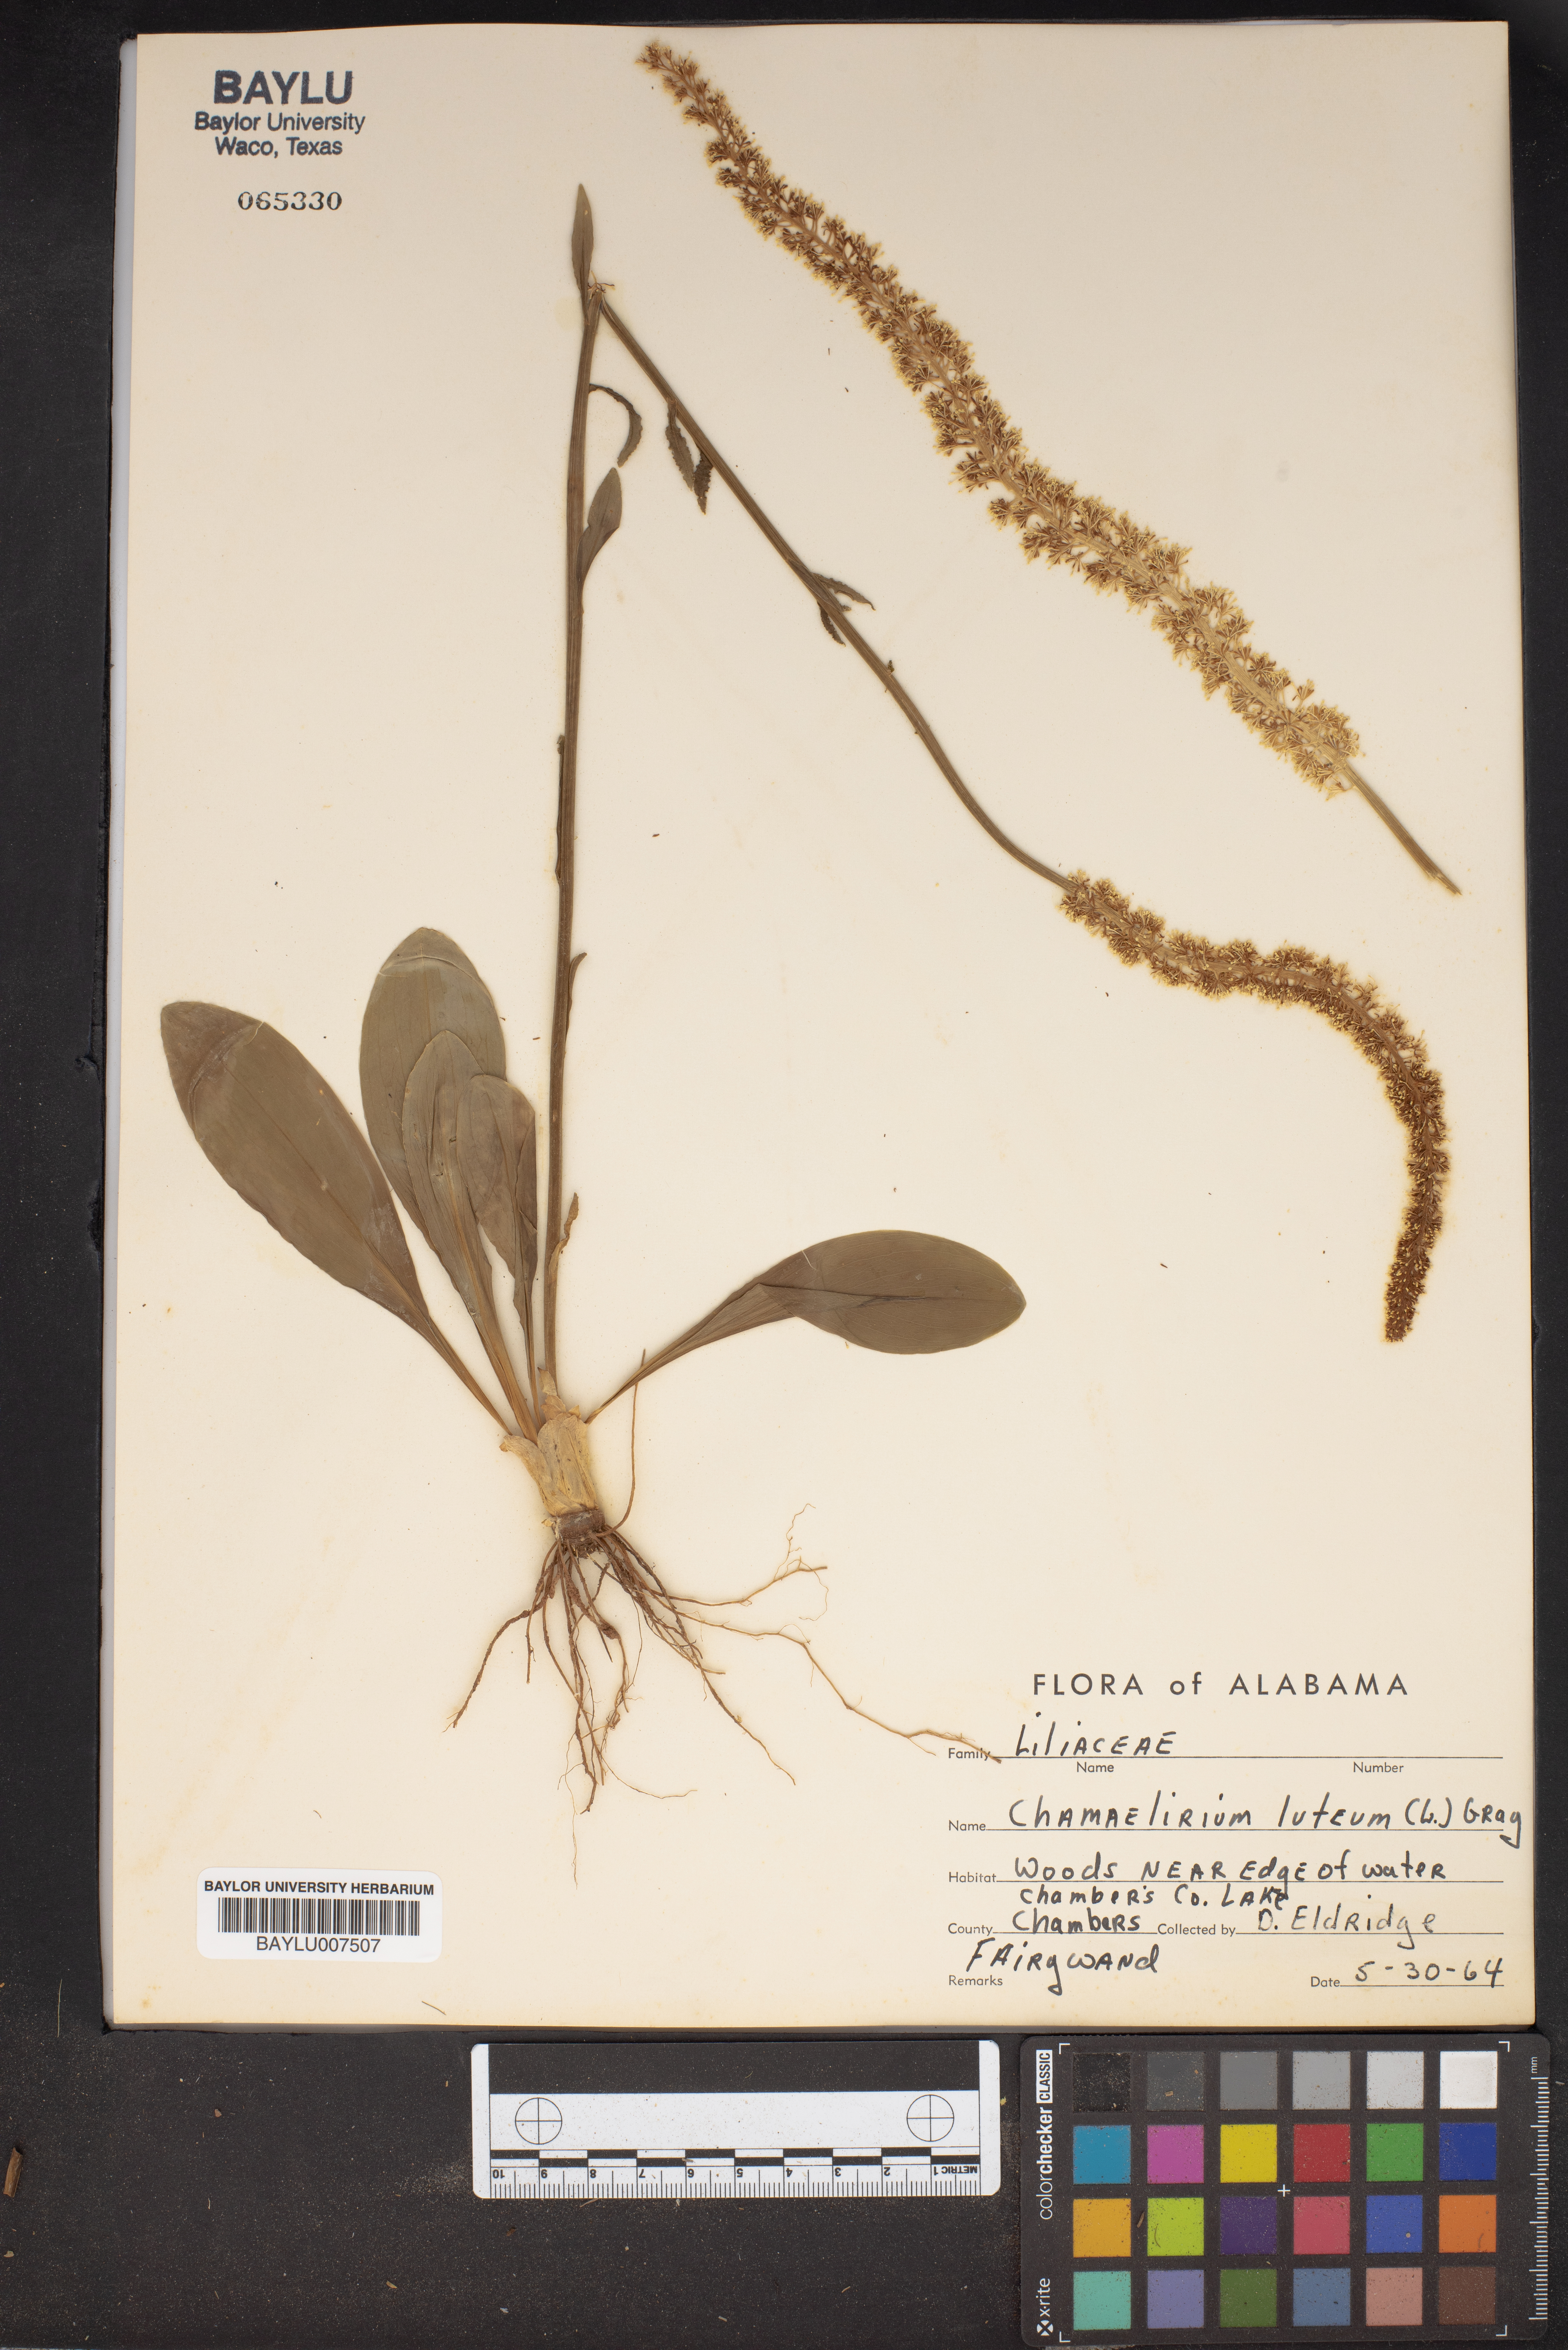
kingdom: Plantae
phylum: Tracheophyta
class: Liliopsida
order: Liliales
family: Melanthiaceae
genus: Chamaelirium
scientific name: Chamaelirium luteum
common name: Fairy-wand
